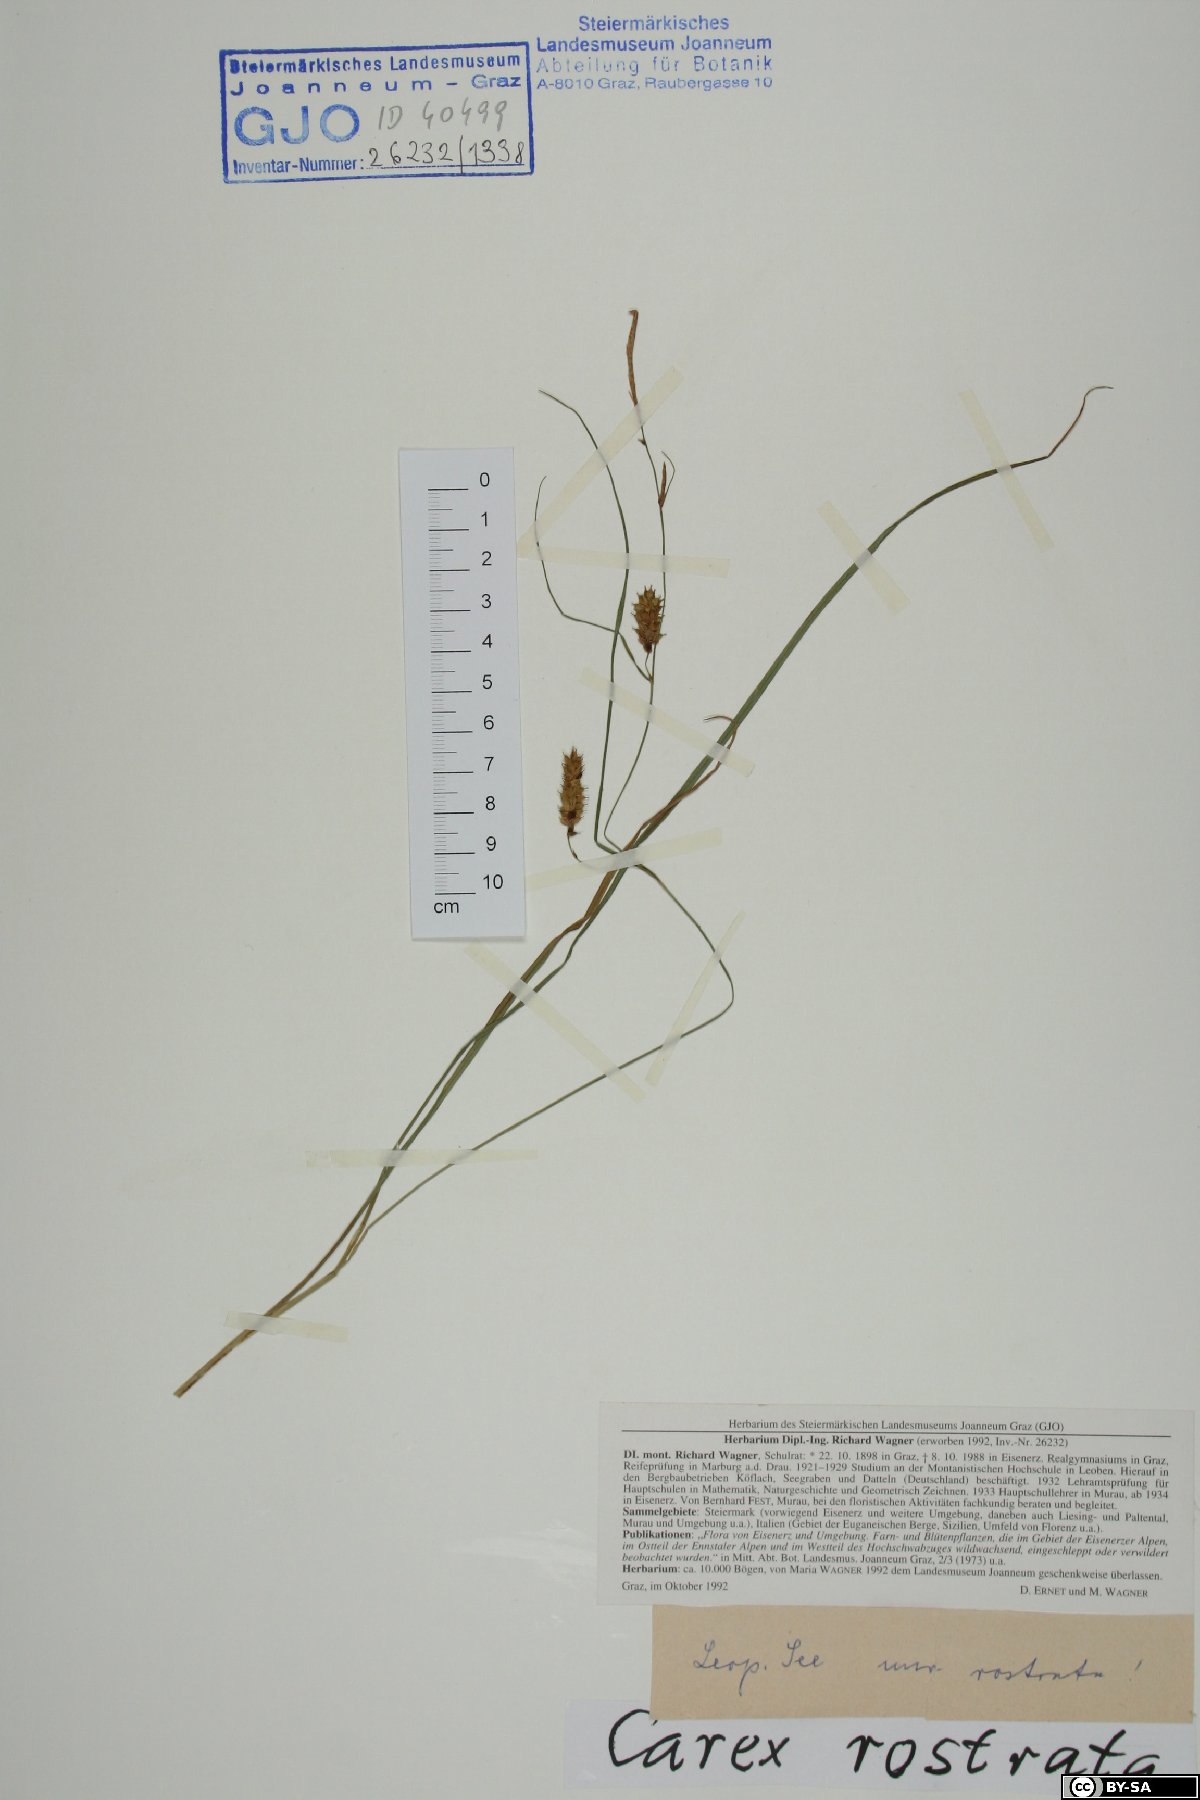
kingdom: Plantae
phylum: Tracheophyta
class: Liliopsida
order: Poales
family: Cyperaceae
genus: Carex
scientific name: Carex rostrata
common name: Bottle sedge
